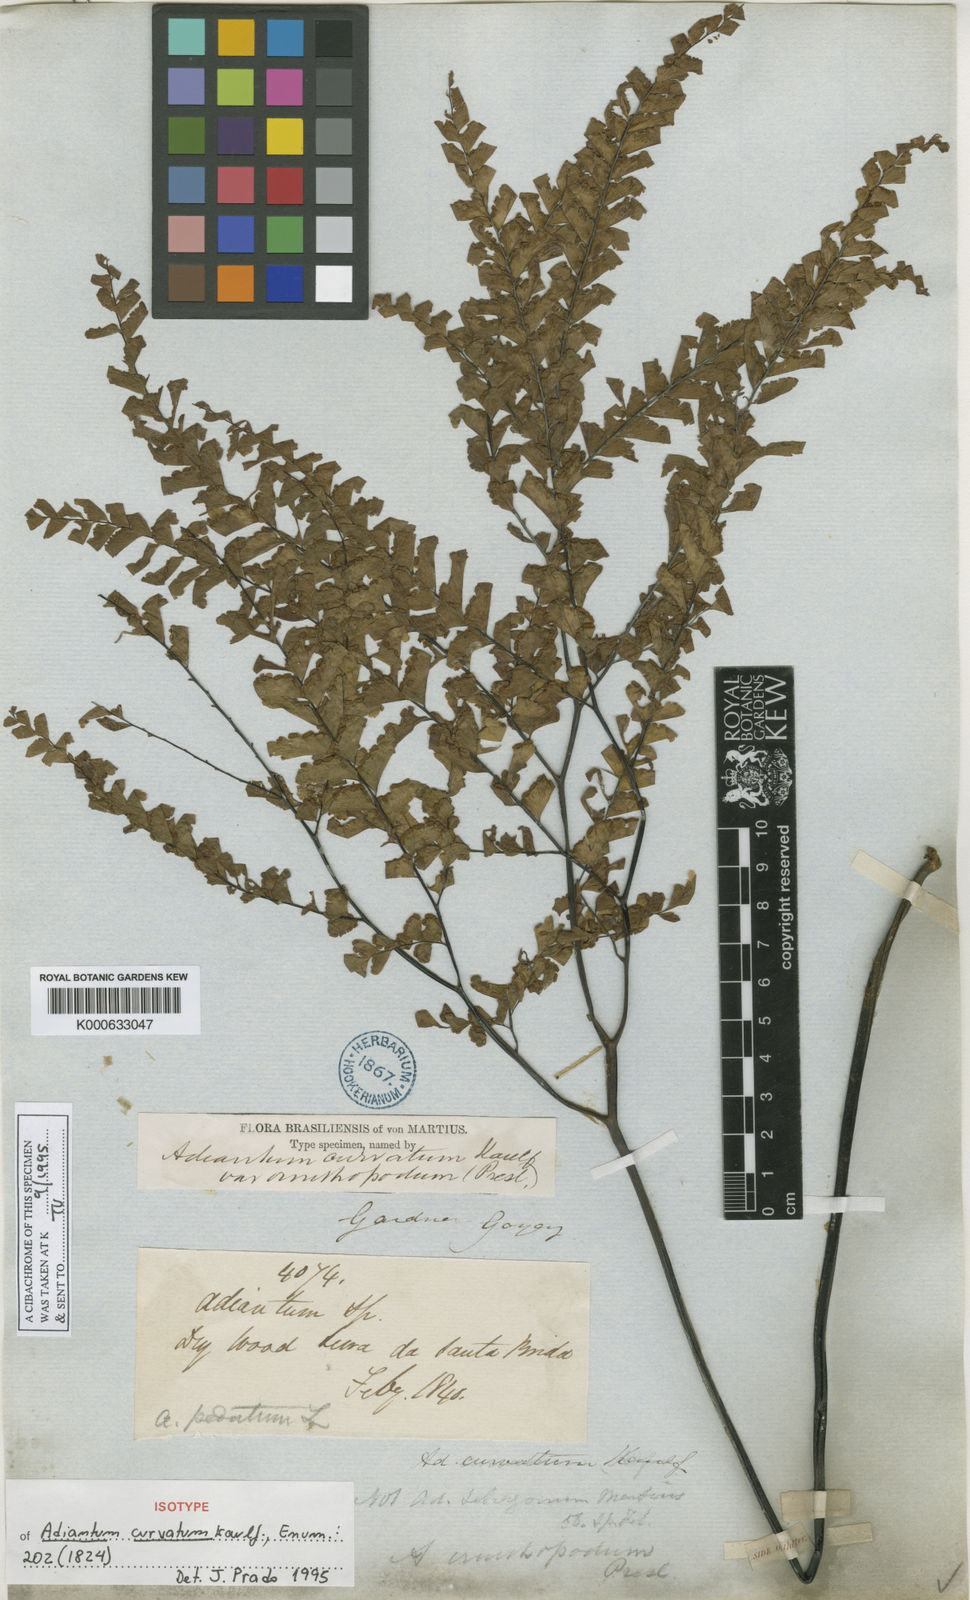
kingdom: Plantae
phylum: Tracheophyta
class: Polypodiopsida
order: Polypodiales
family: Pteridaceae
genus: Adiantum
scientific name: Adiantum tetragonum
